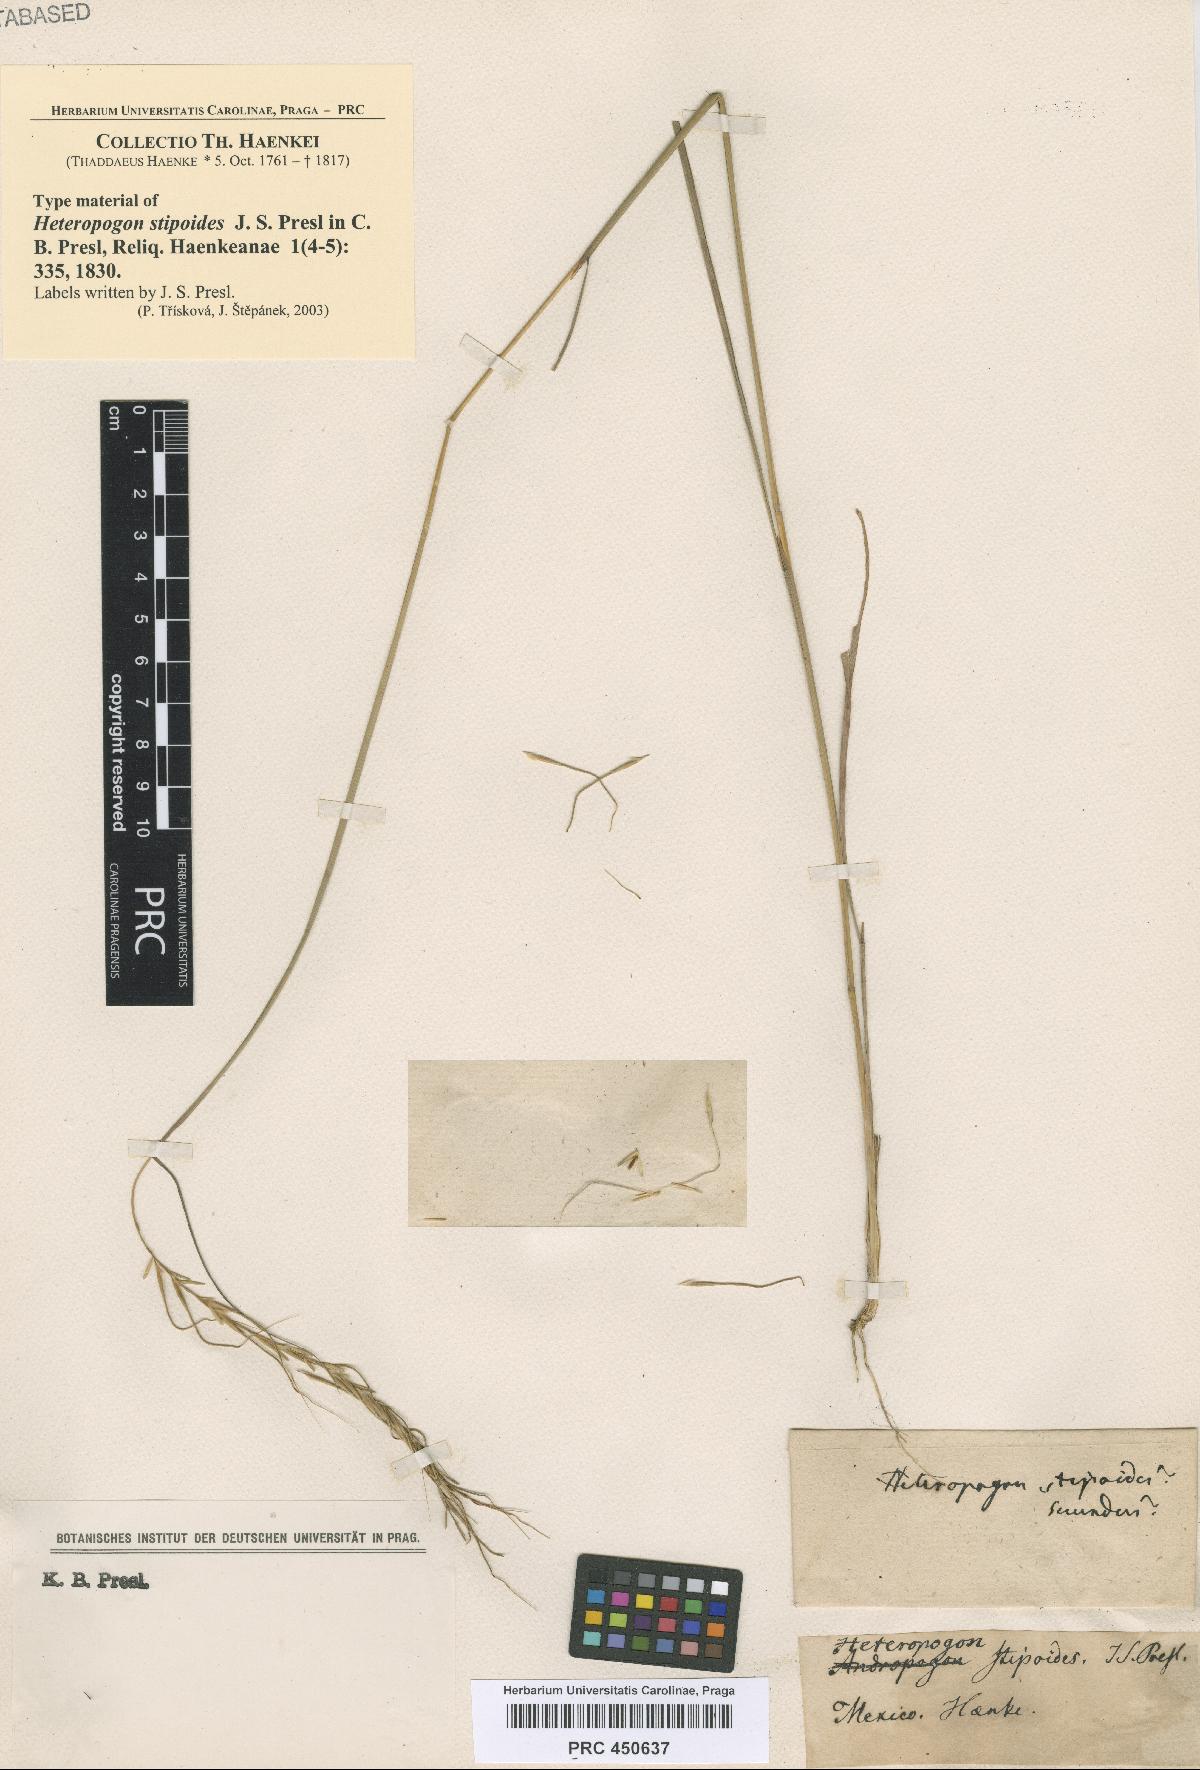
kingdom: Plantae
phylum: Tracheophyta
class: Liliopsida
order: Poales
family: Poaceae
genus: Trachypogon
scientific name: Trachypogon spicatus
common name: Crinkle-awn
